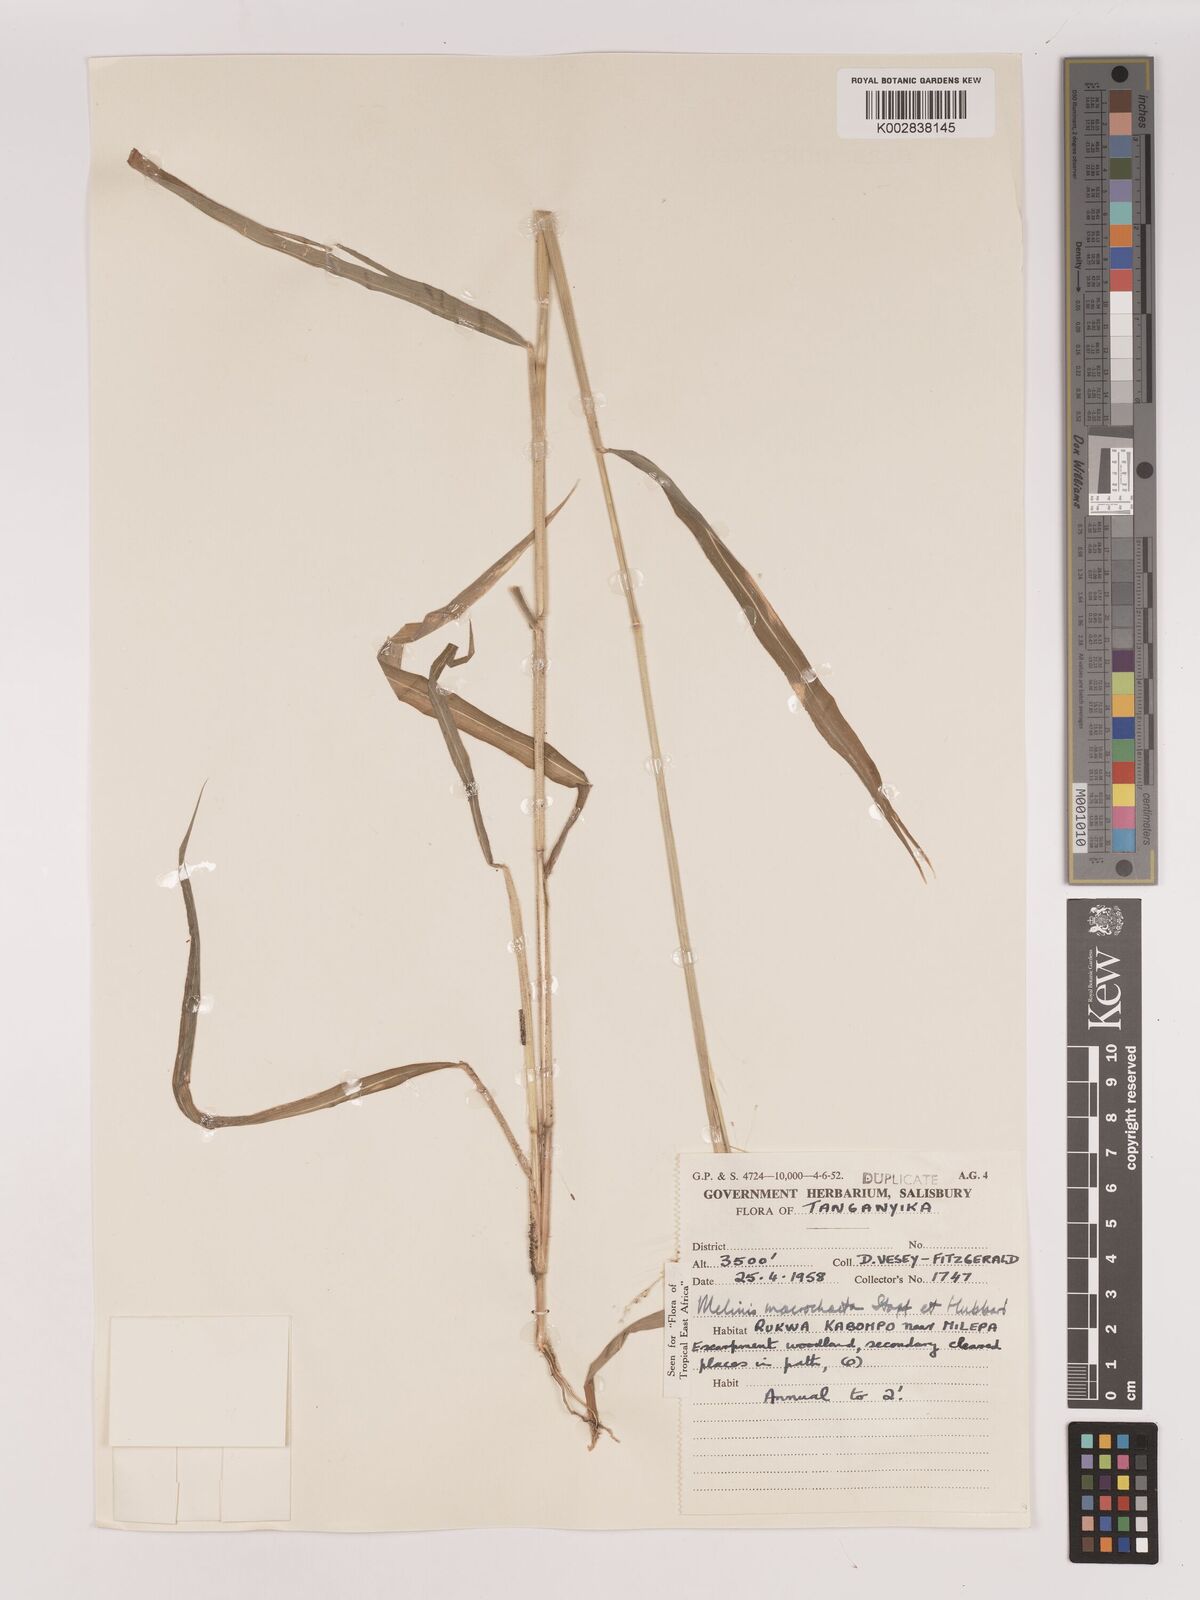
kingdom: Plantae
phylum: Tracheophyta
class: Liliopsida
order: Poales
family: Poaceae
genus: Melinis
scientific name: Melinis macrochaeta
